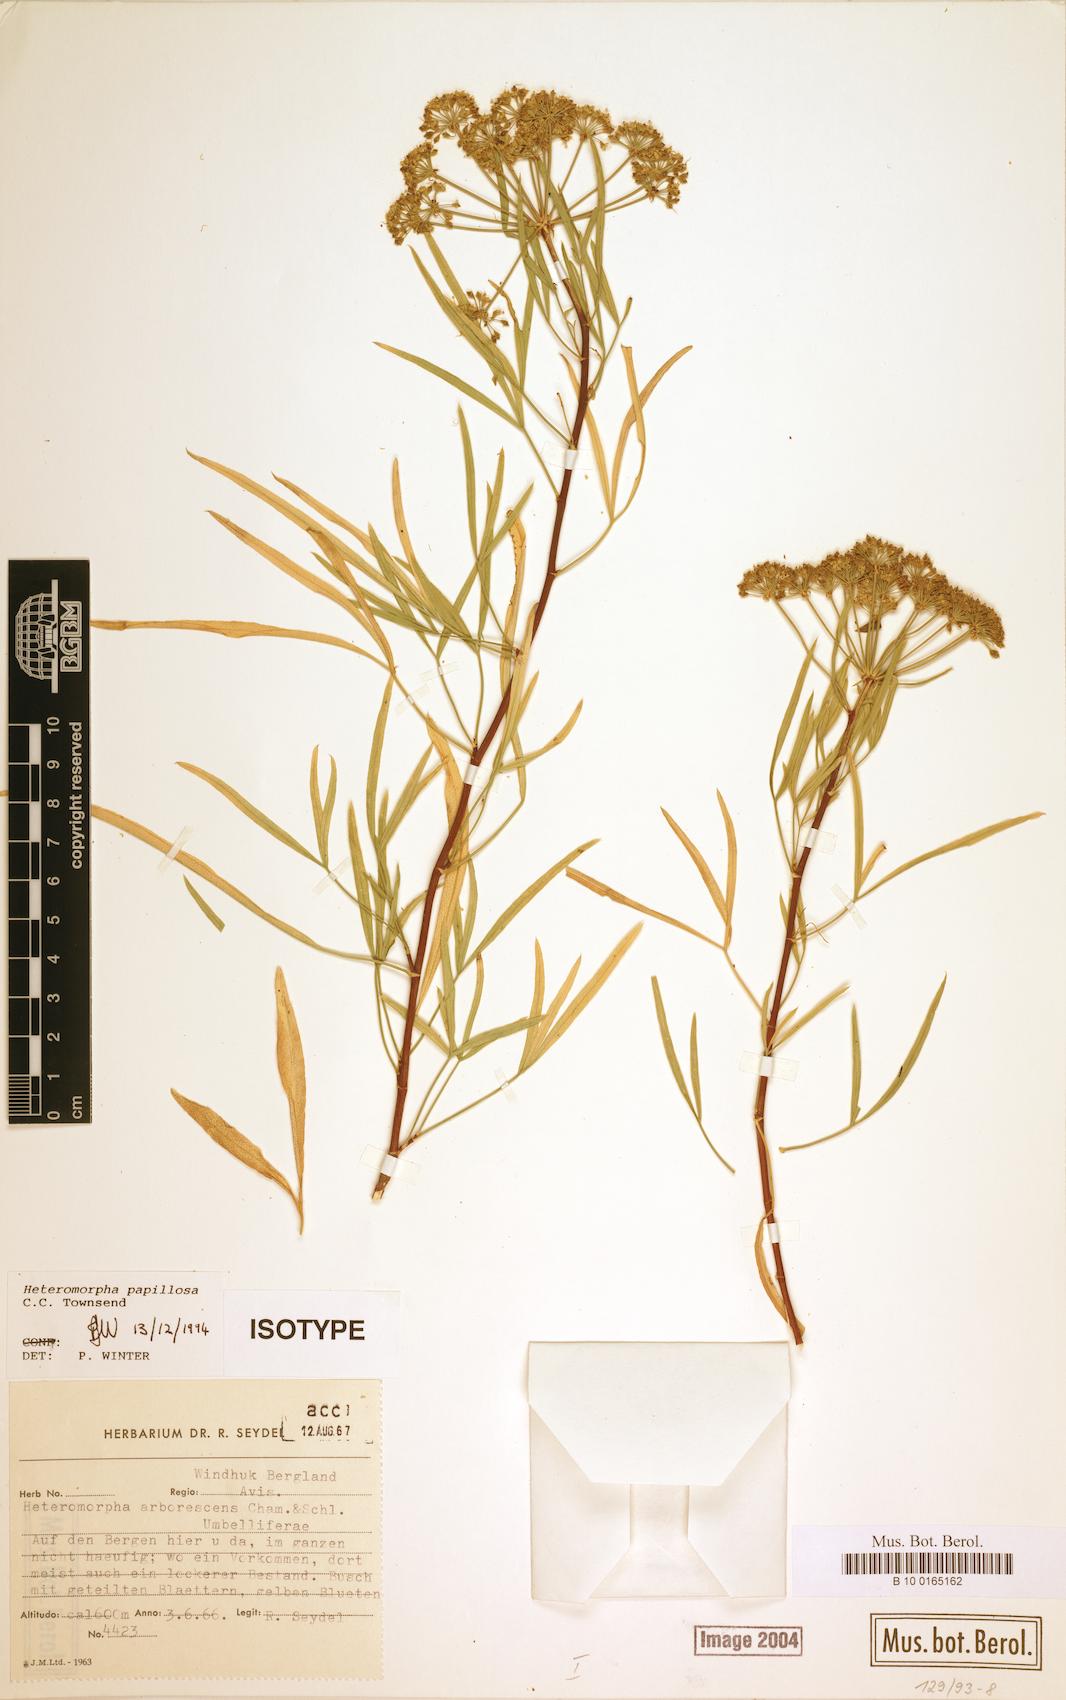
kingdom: Plantae
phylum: Tracheophyta
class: Magnoliopsida
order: Apiales
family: Apiaceae
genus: Heteromorpha
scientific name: Heteromorpha papillosa
